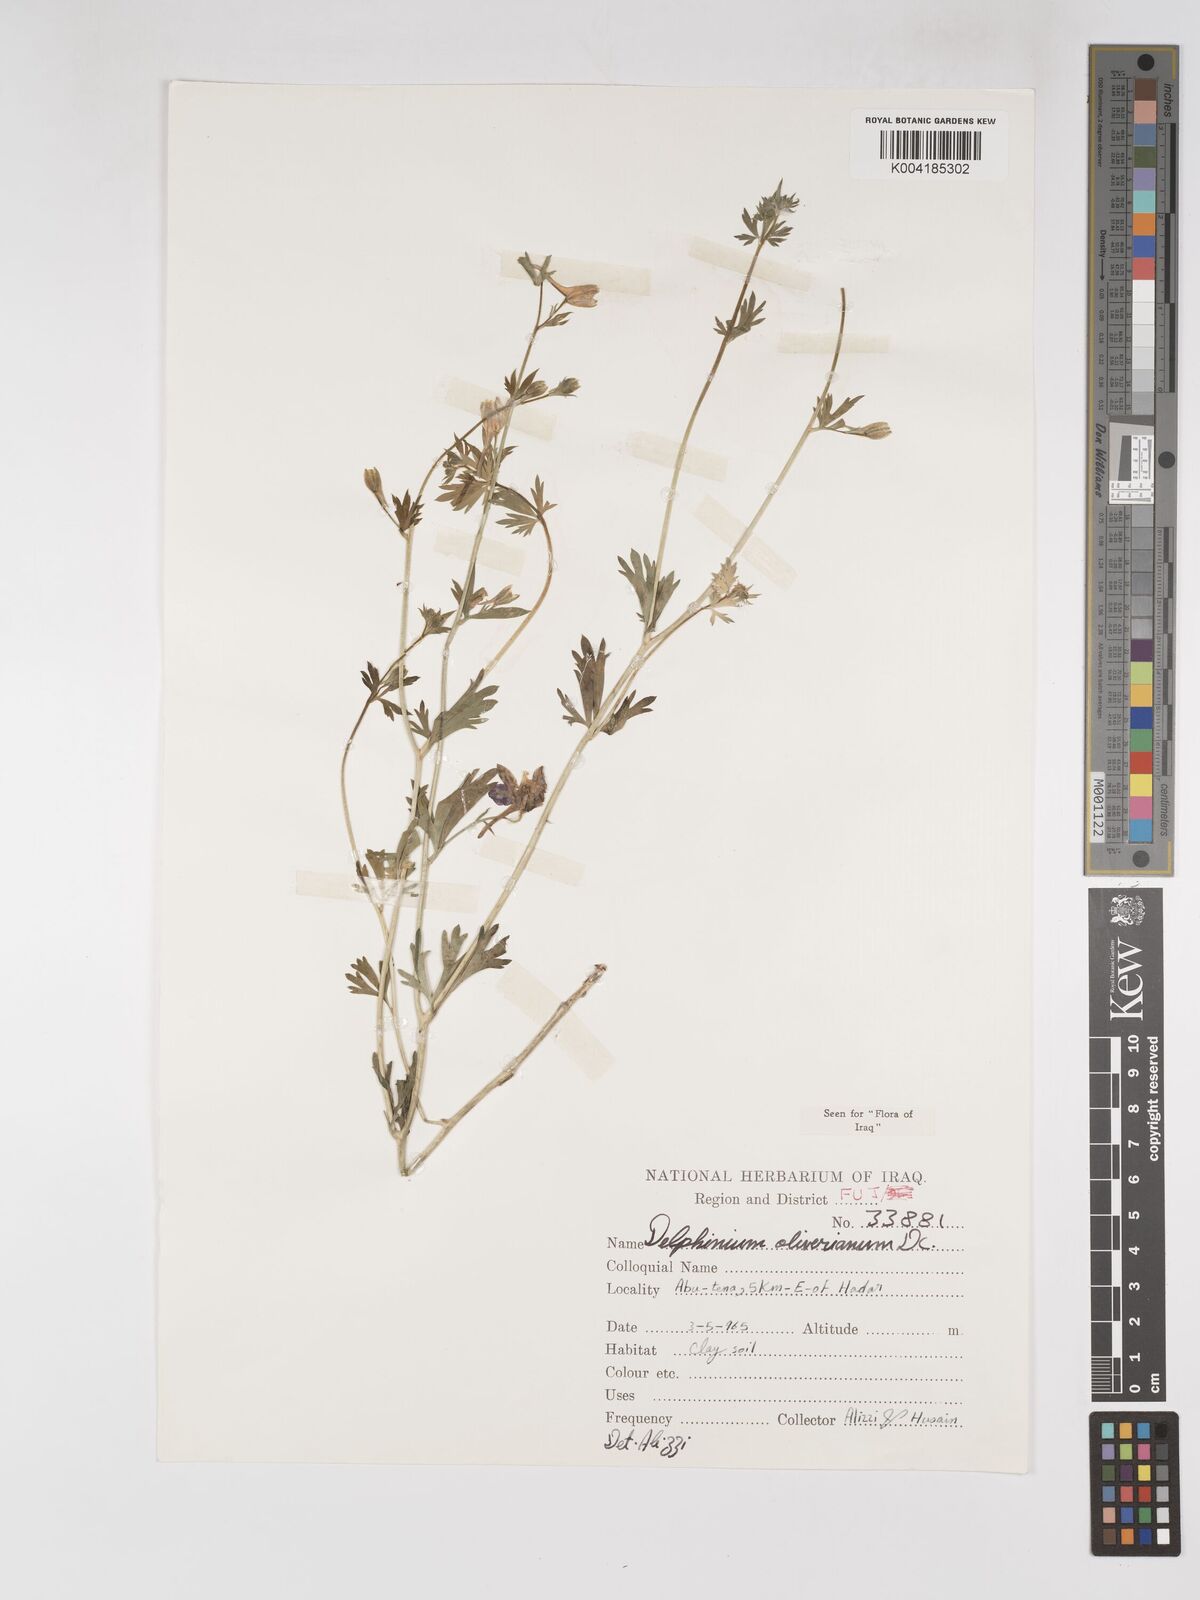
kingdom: Plantae
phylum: Tracheophyta
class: Magnoliopsida
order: Ranunculales
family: Ranunculaceae
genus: Delphinium
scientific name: Delphinium oliverianum
